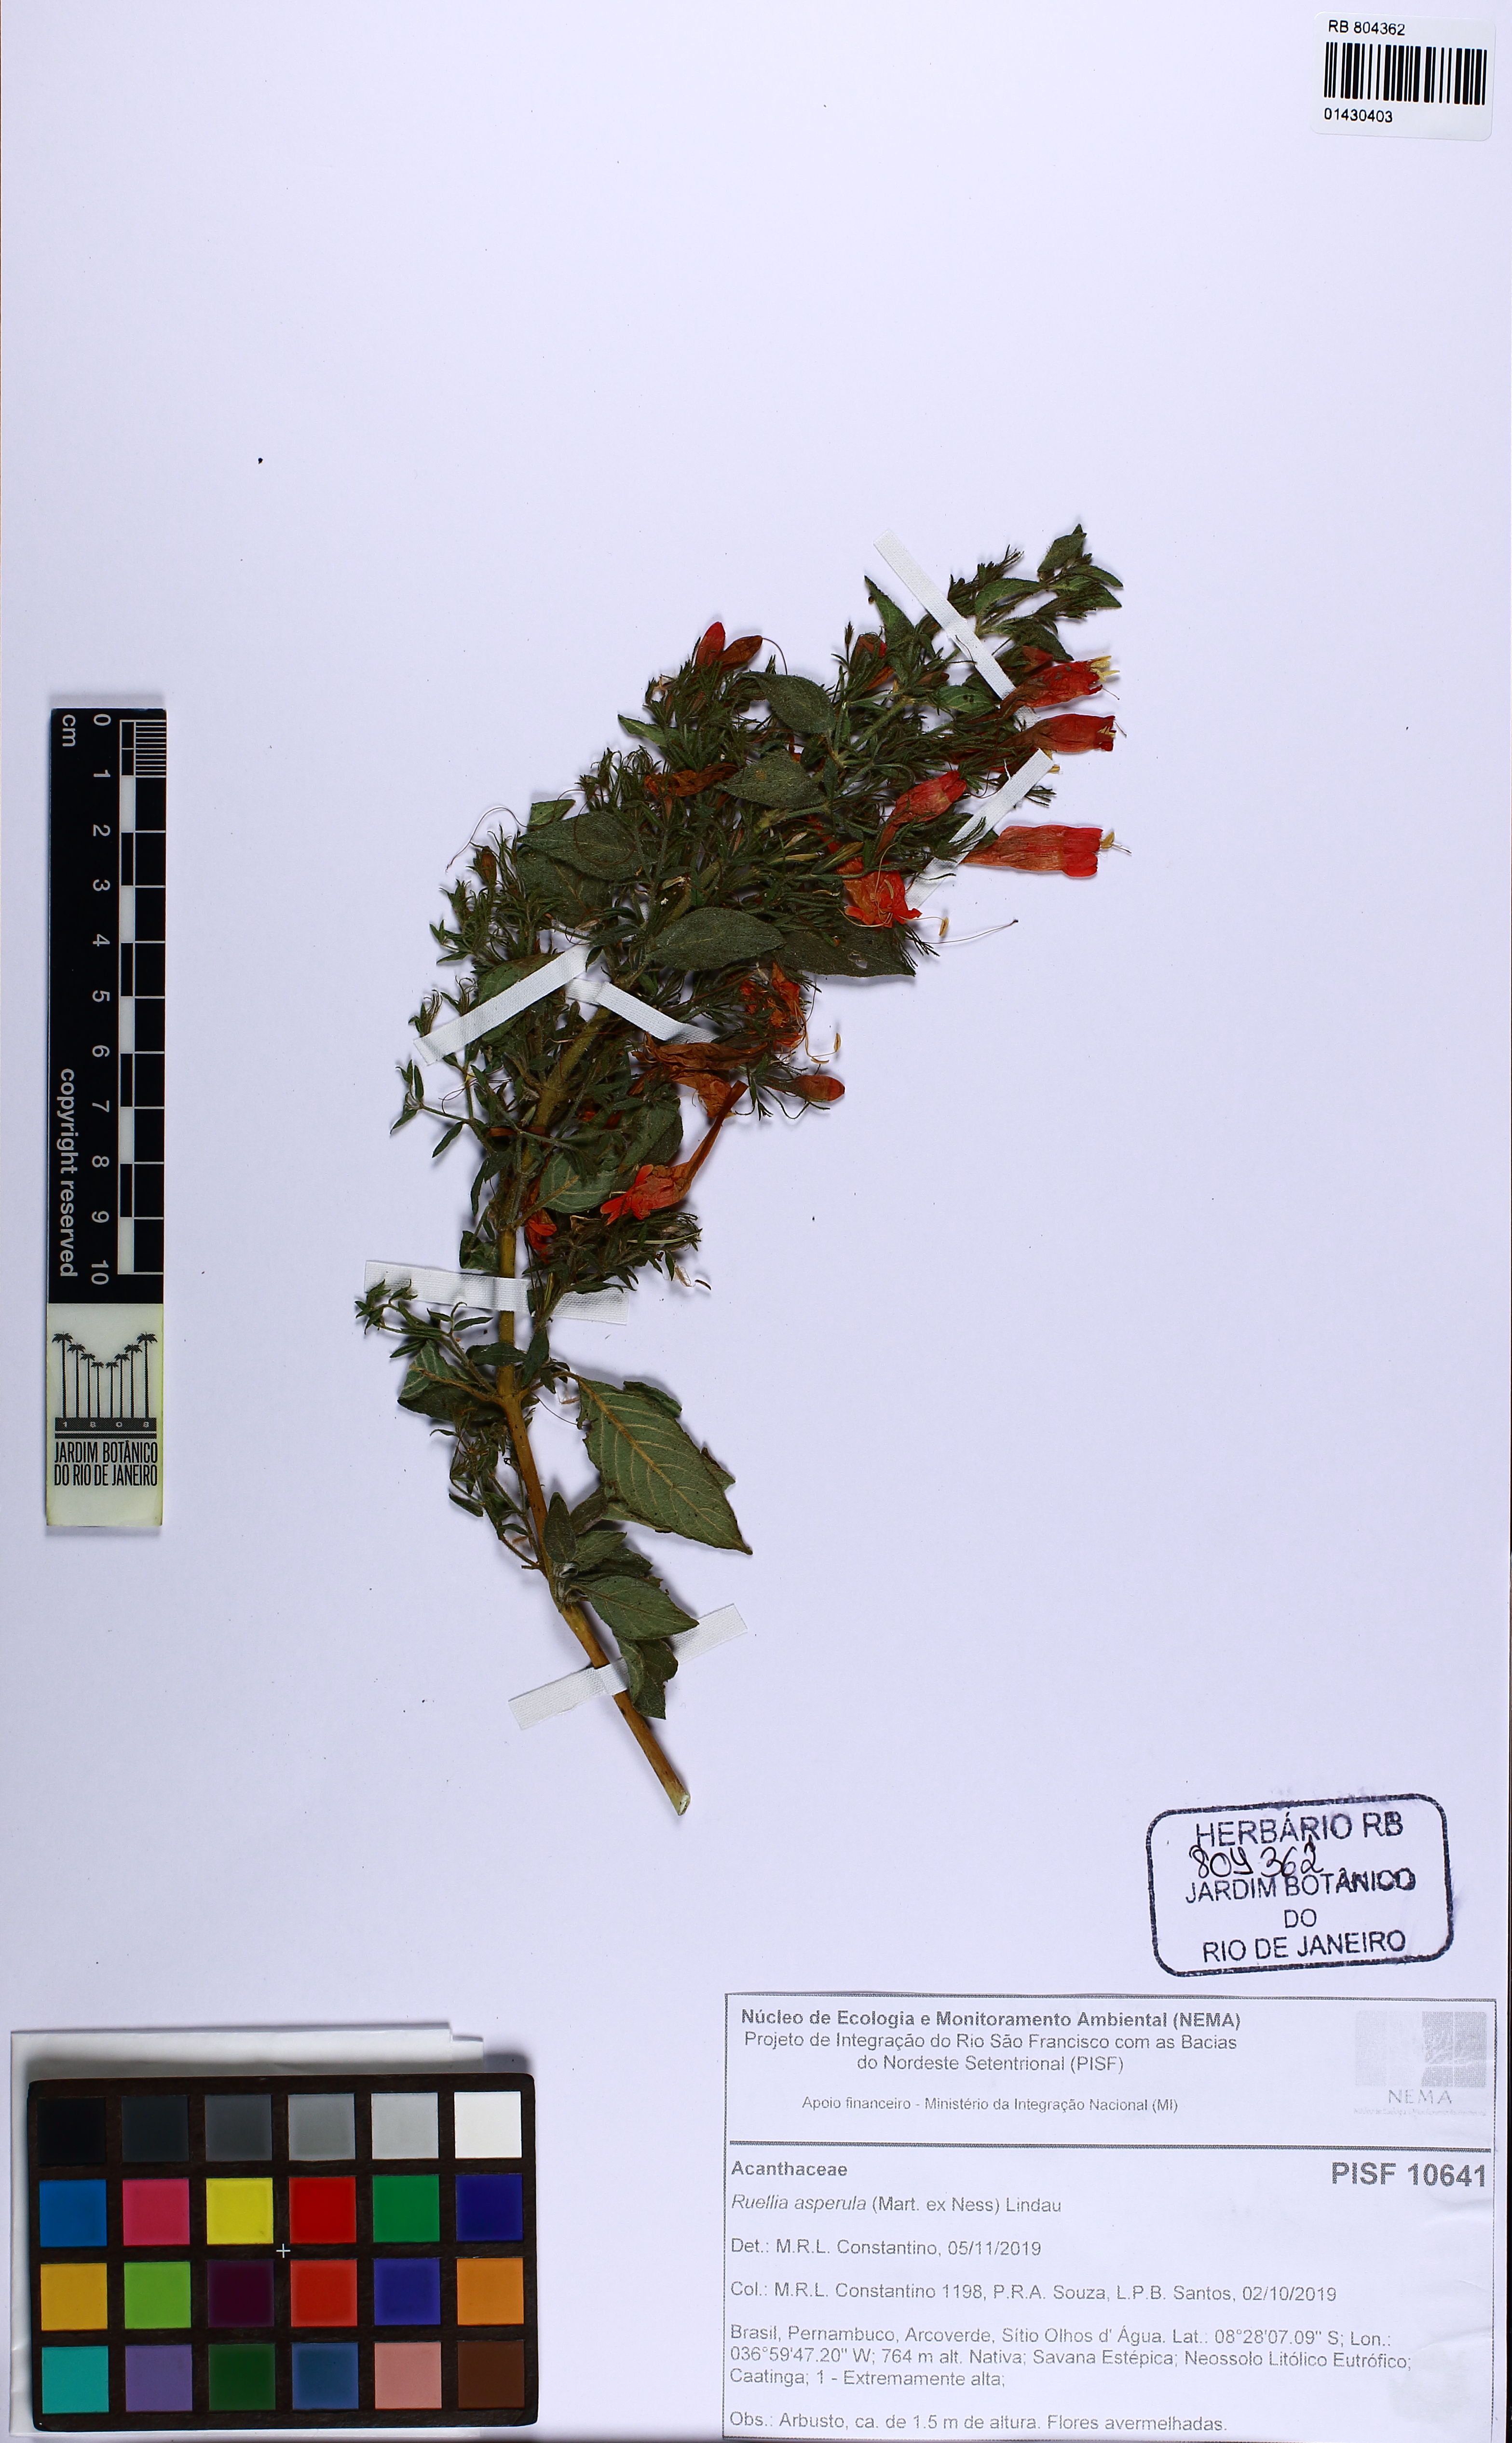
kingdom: Plantae
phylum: Tracheophyta
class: Magnoliopsida
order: Lamiales
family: Acanthaceae
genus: Ruellia
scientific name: Ruellia asperula
